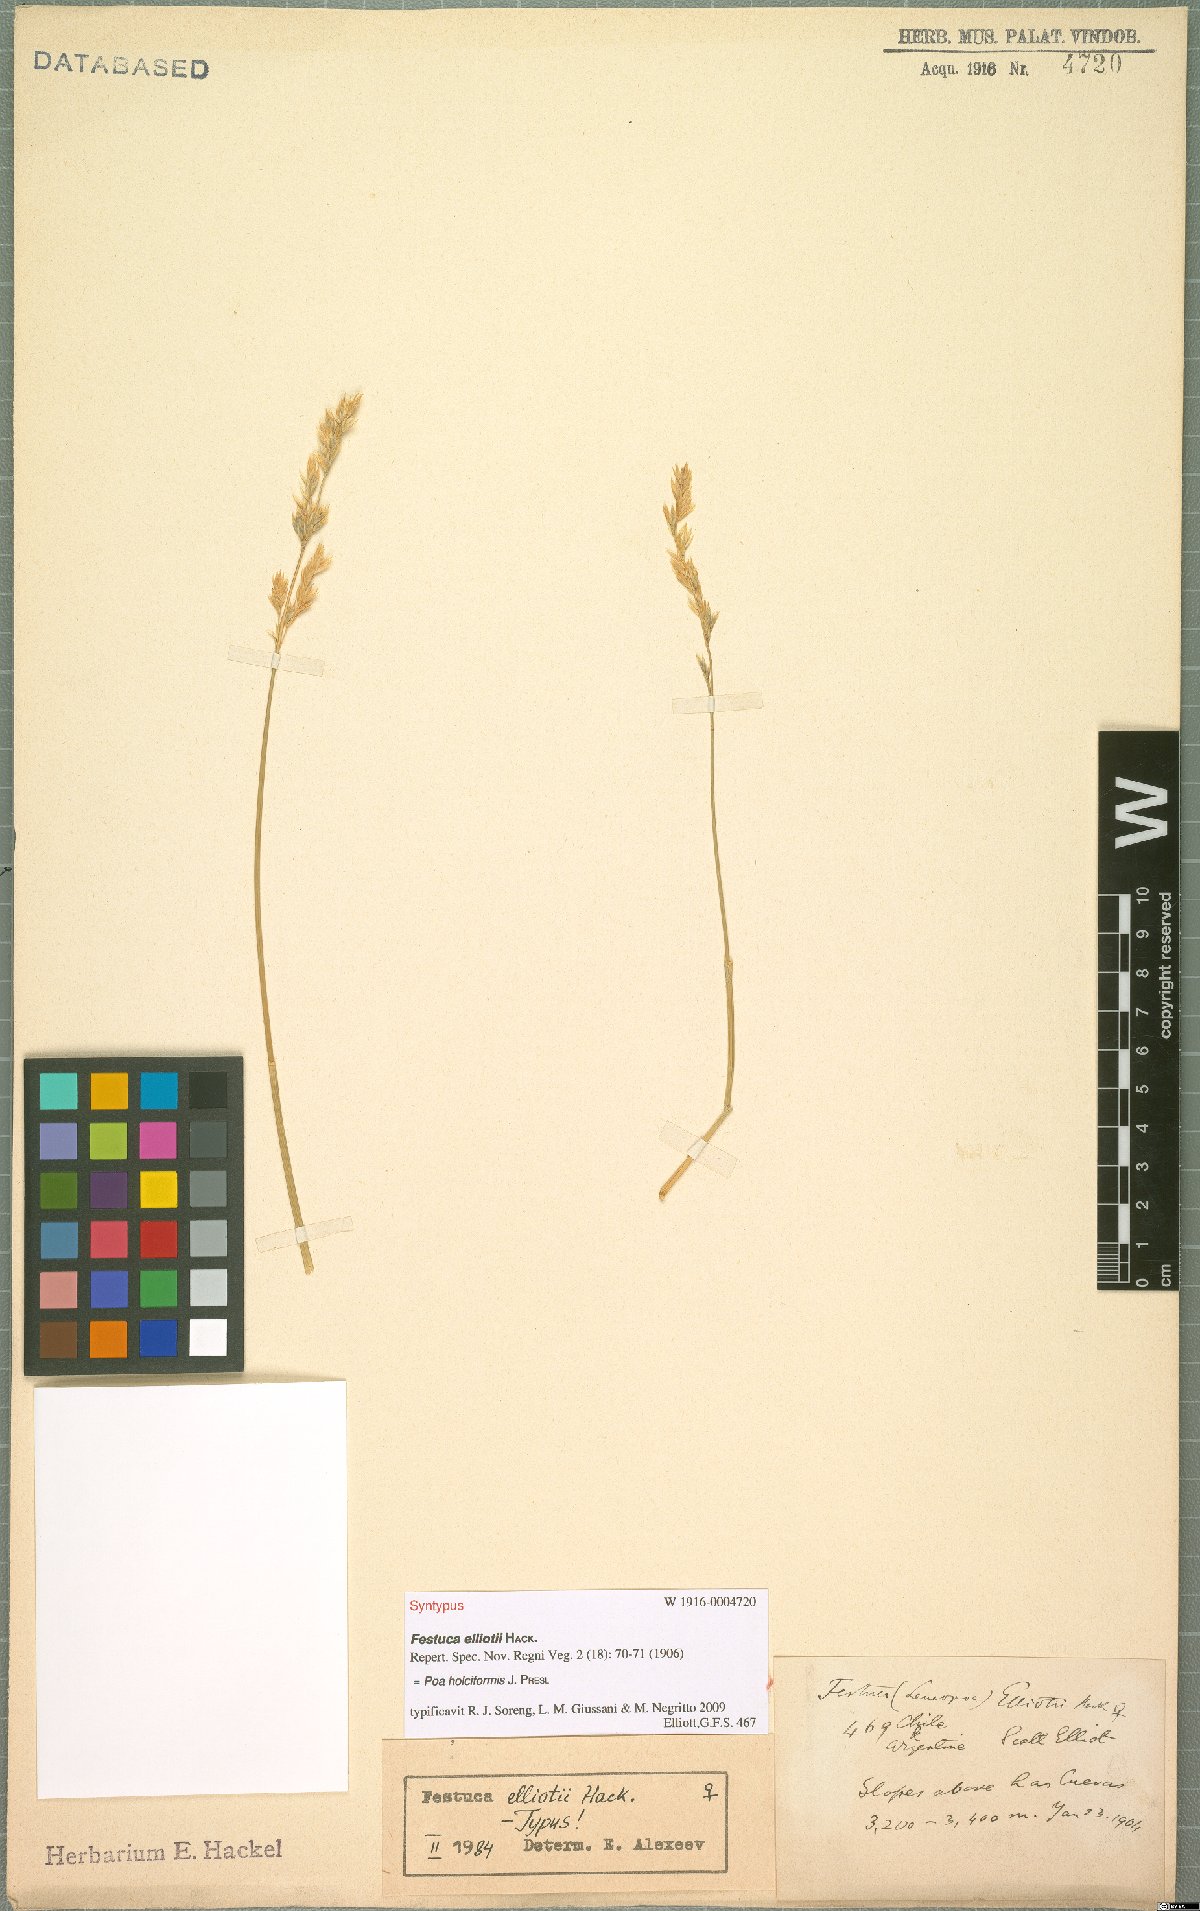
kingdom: Plantae
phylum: Tracheophyta
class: Liliopsida
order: Poales
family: Poaceae
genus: Poa
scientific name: Poa holciformis
